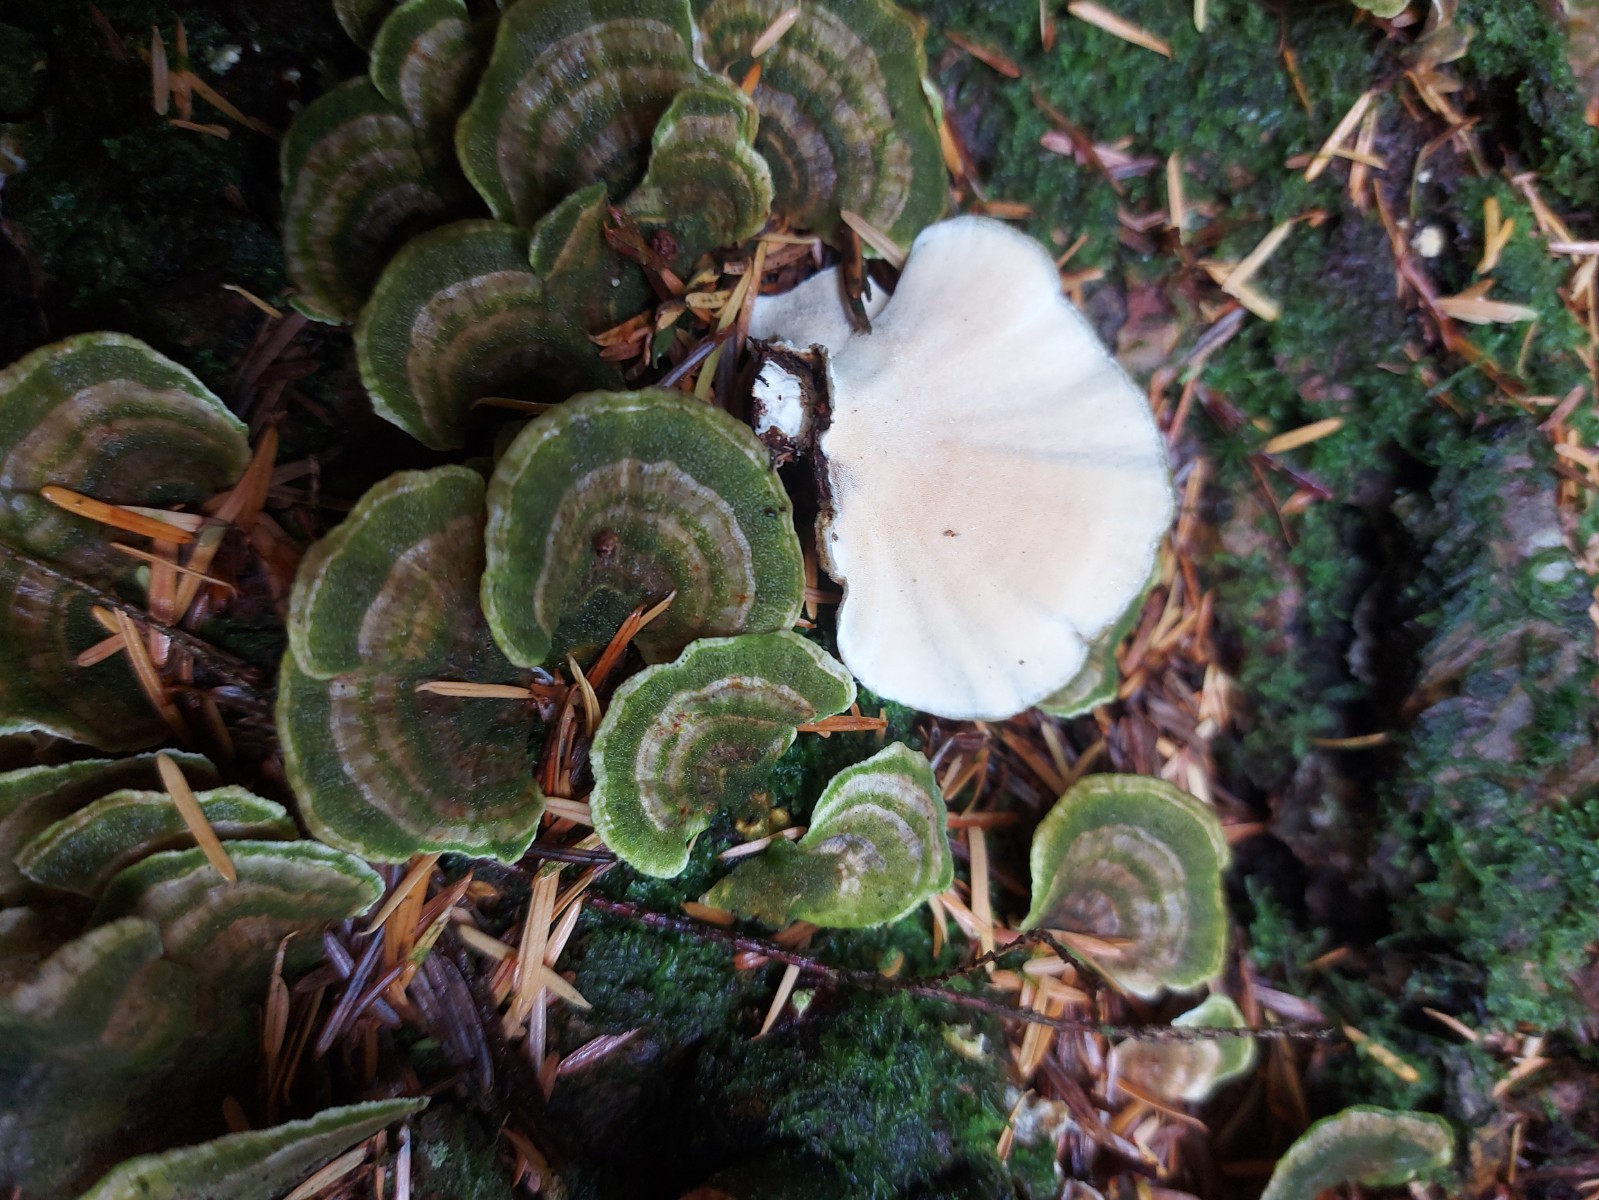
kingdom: Fungi
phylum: Basidiomycota
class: Agaricomycetes
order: Polyporales
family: Polyporaceae
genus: Trametes
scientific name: Trametes hirsuta
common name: håret læderporesvamp
